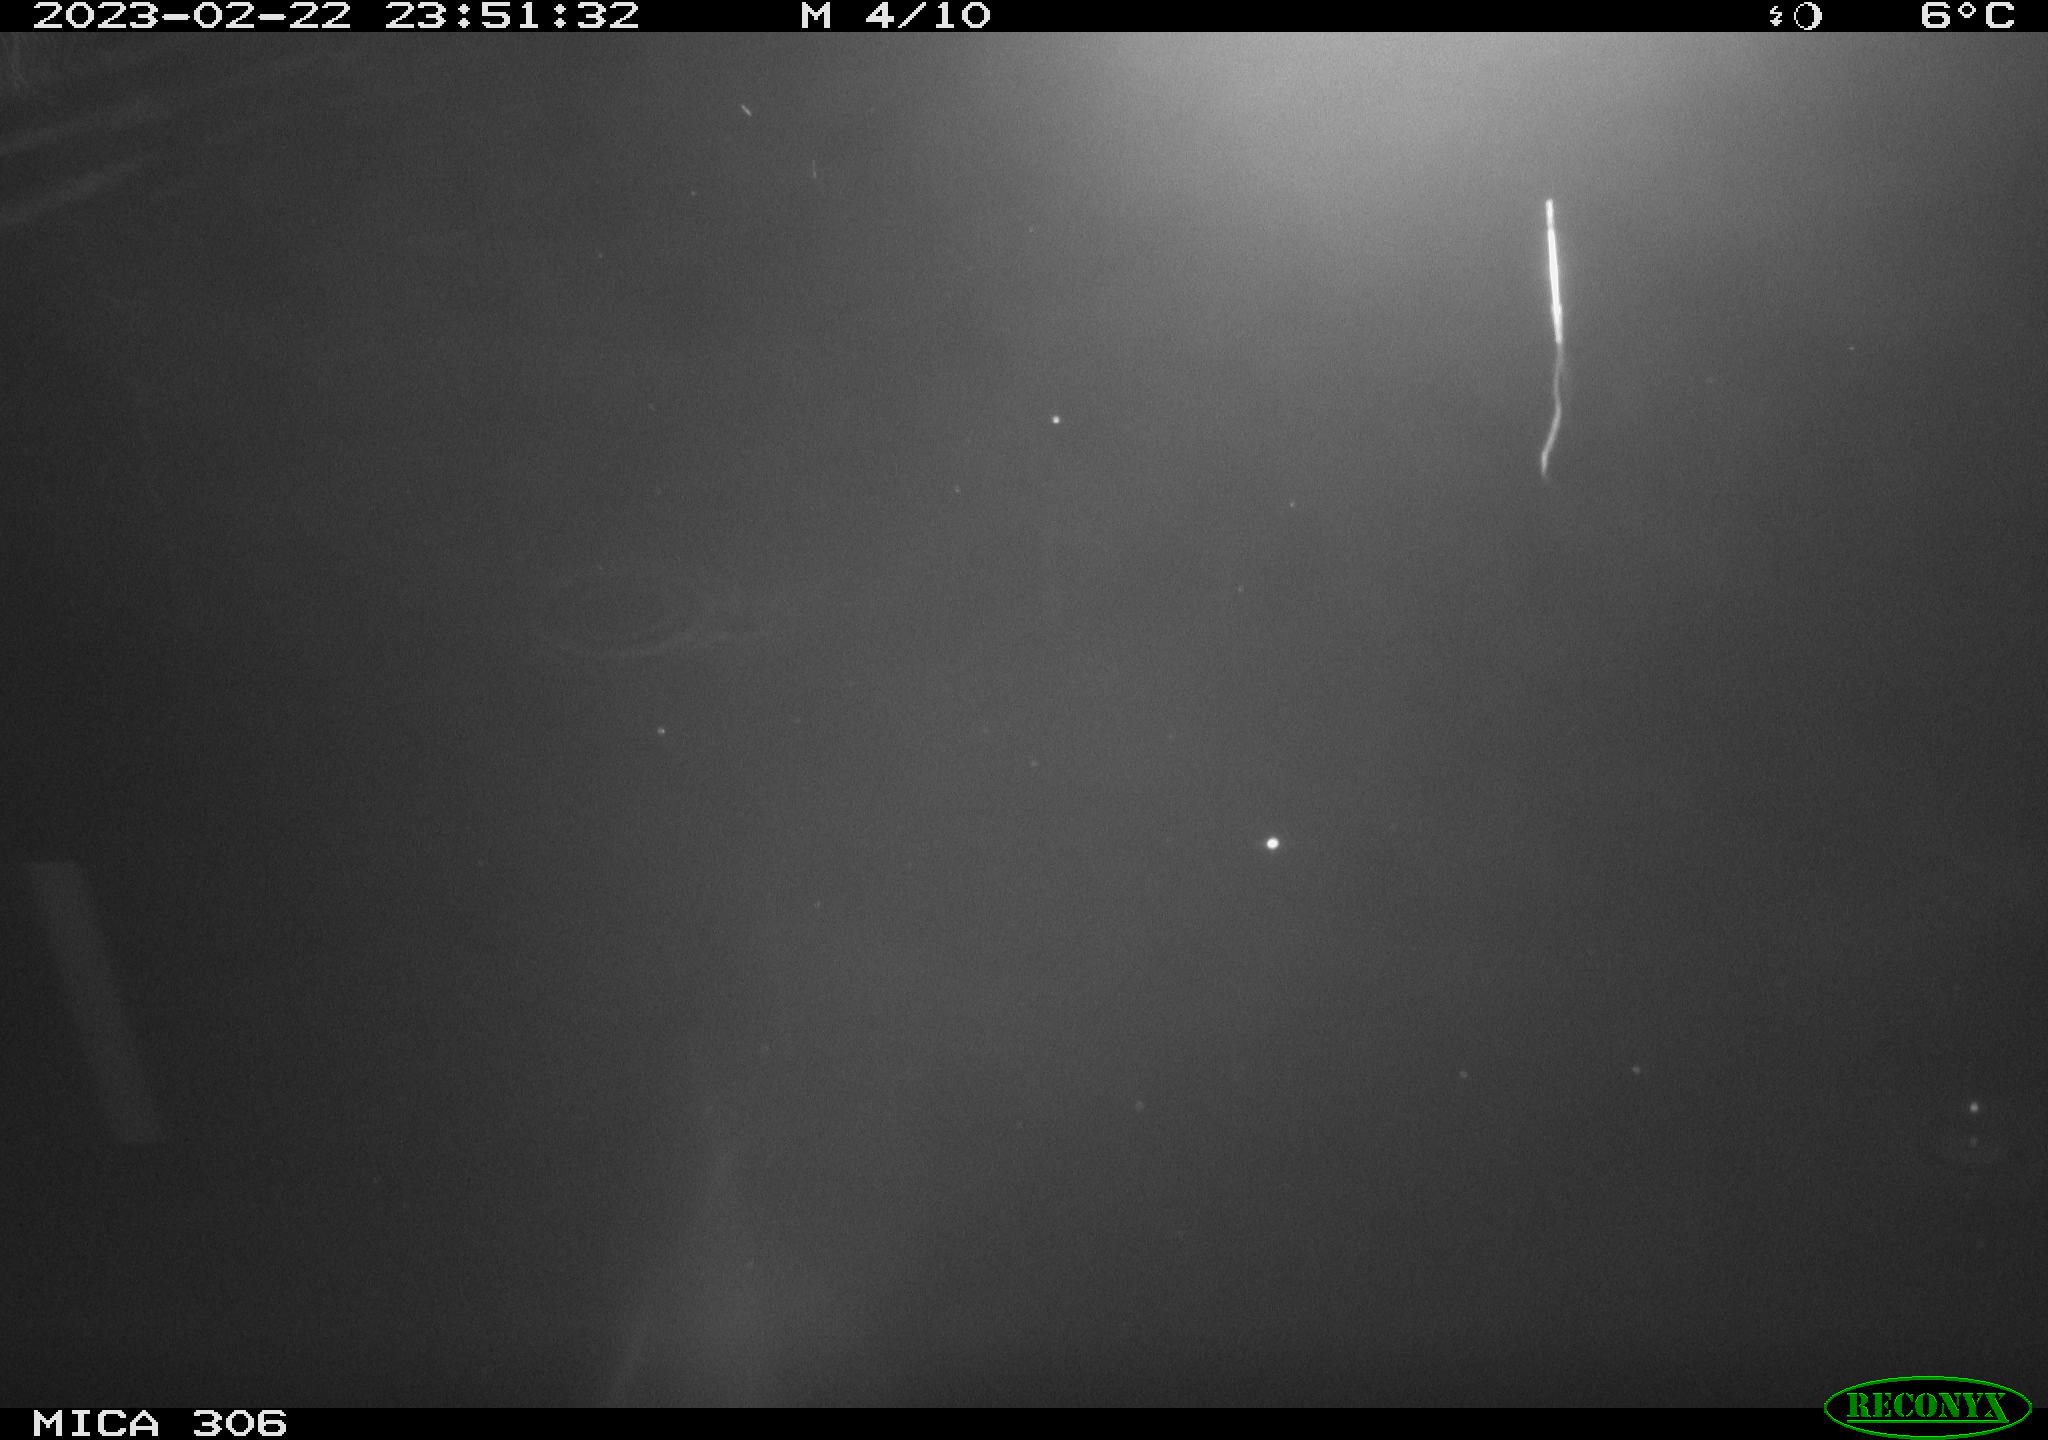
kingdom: Animalia
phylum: Chordata
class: Mammalia
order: Rodentia
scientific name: Rodentia
